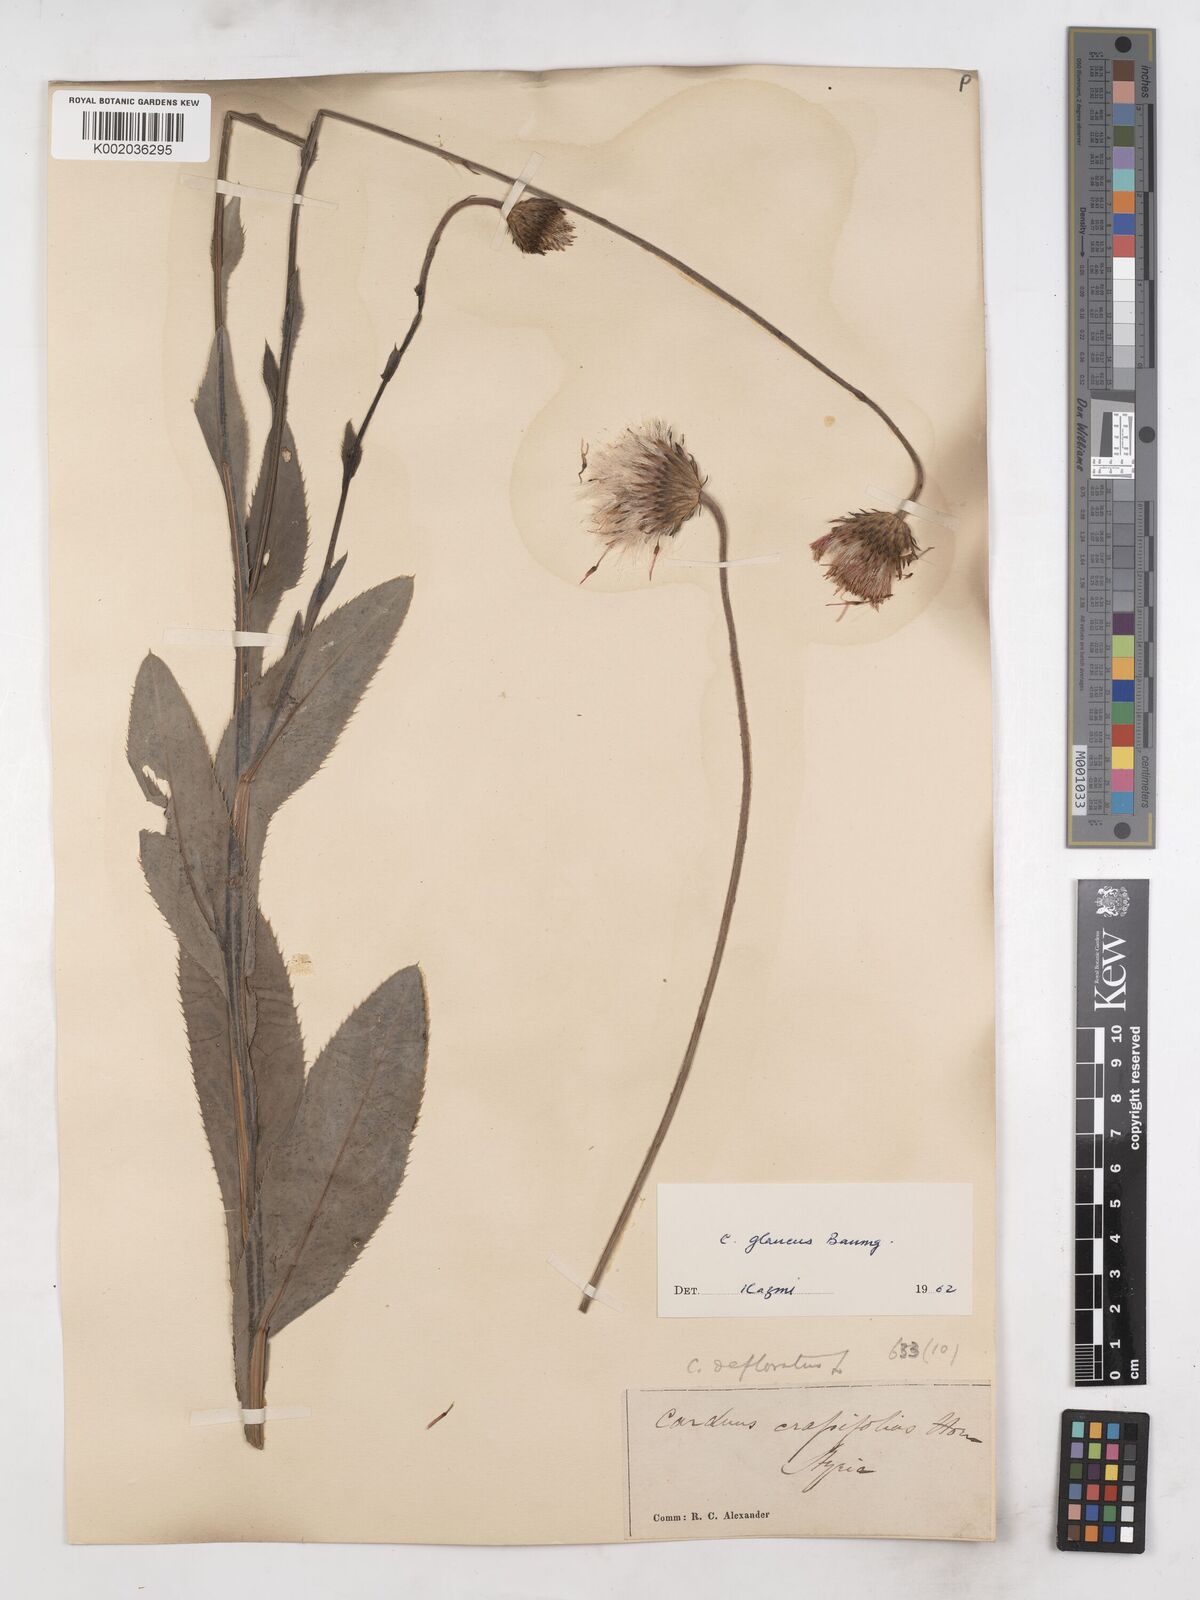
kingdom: Plantae
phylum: Tracheophyta
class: Magnoliopsida
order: Asterales
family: Asteraceae
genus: Carduus
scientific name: Carduus defloratus
